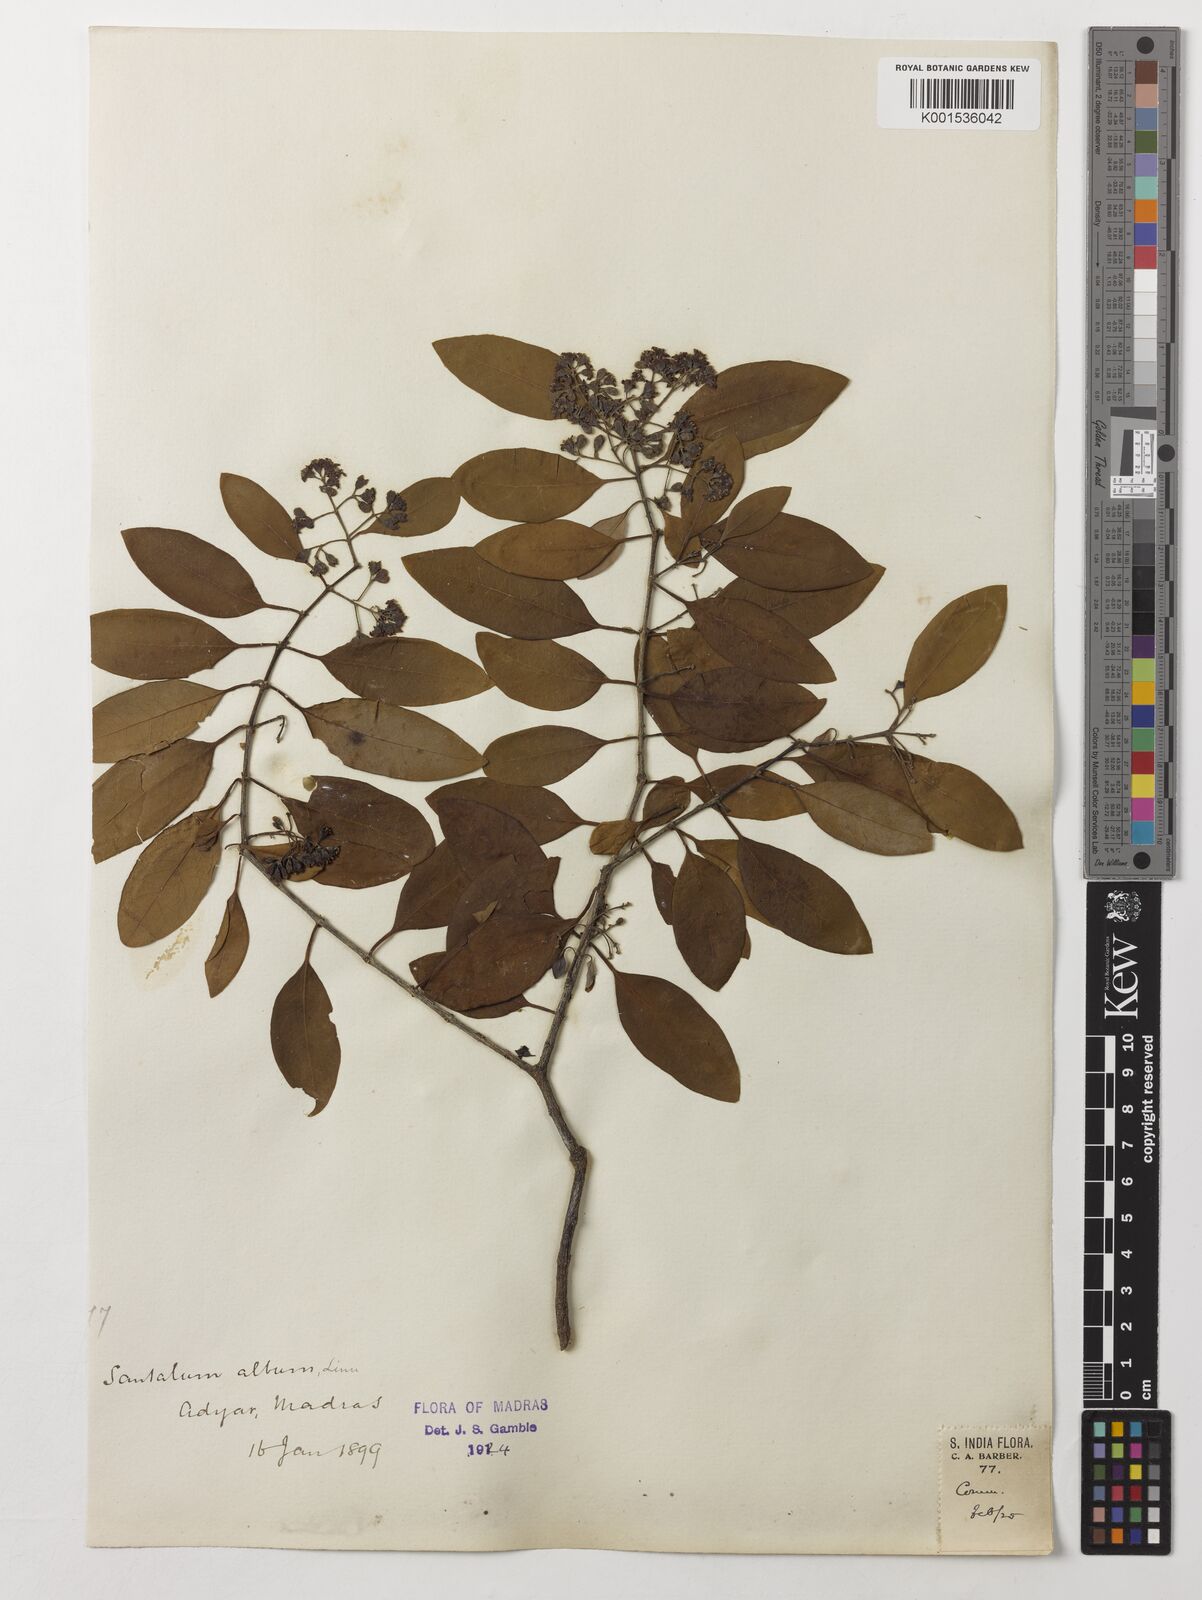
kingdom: Plantae
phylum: Tracheophyta
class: Magnoliopsida
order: Santalales
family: Santalaceae
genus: Santalum
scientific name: Santalum album
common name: Indian sandalwood
